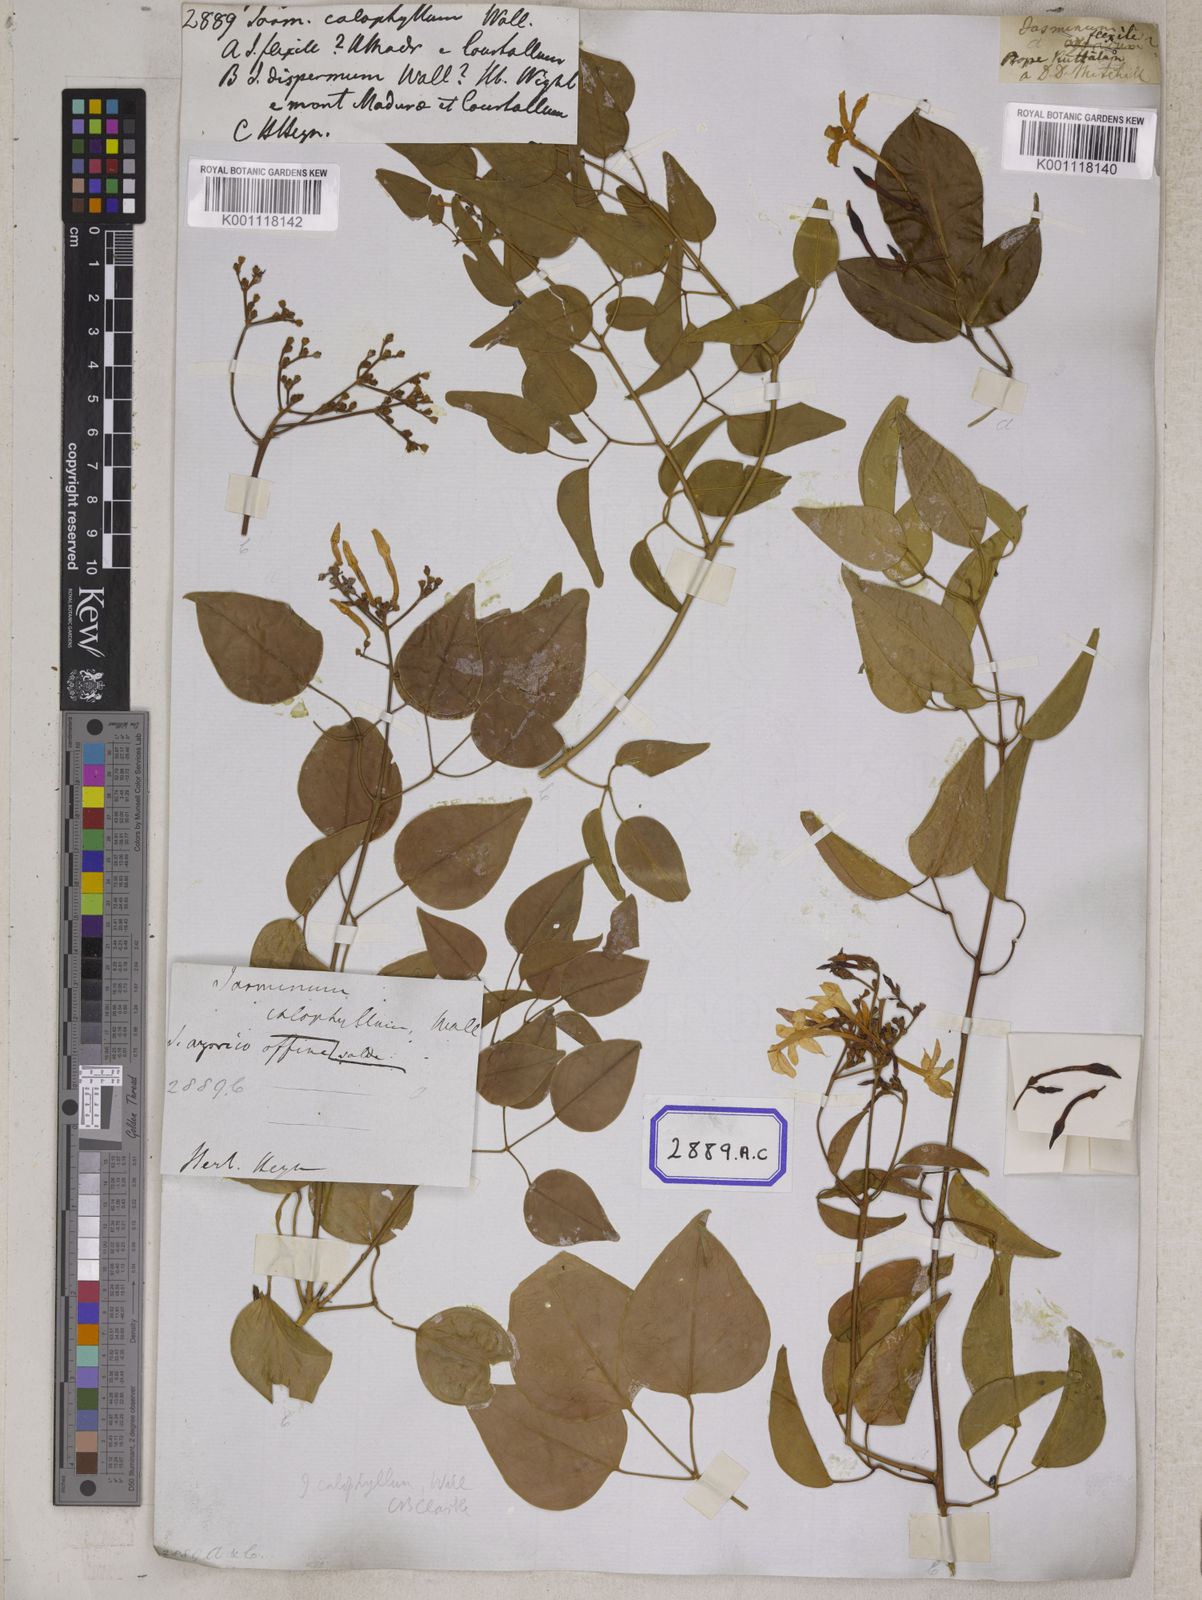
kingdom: Plantae
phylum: Tracheophyta
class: Magnoliopsida
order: Lamiales
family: Oleaceae
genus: Jasminum
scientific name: Jasminum
